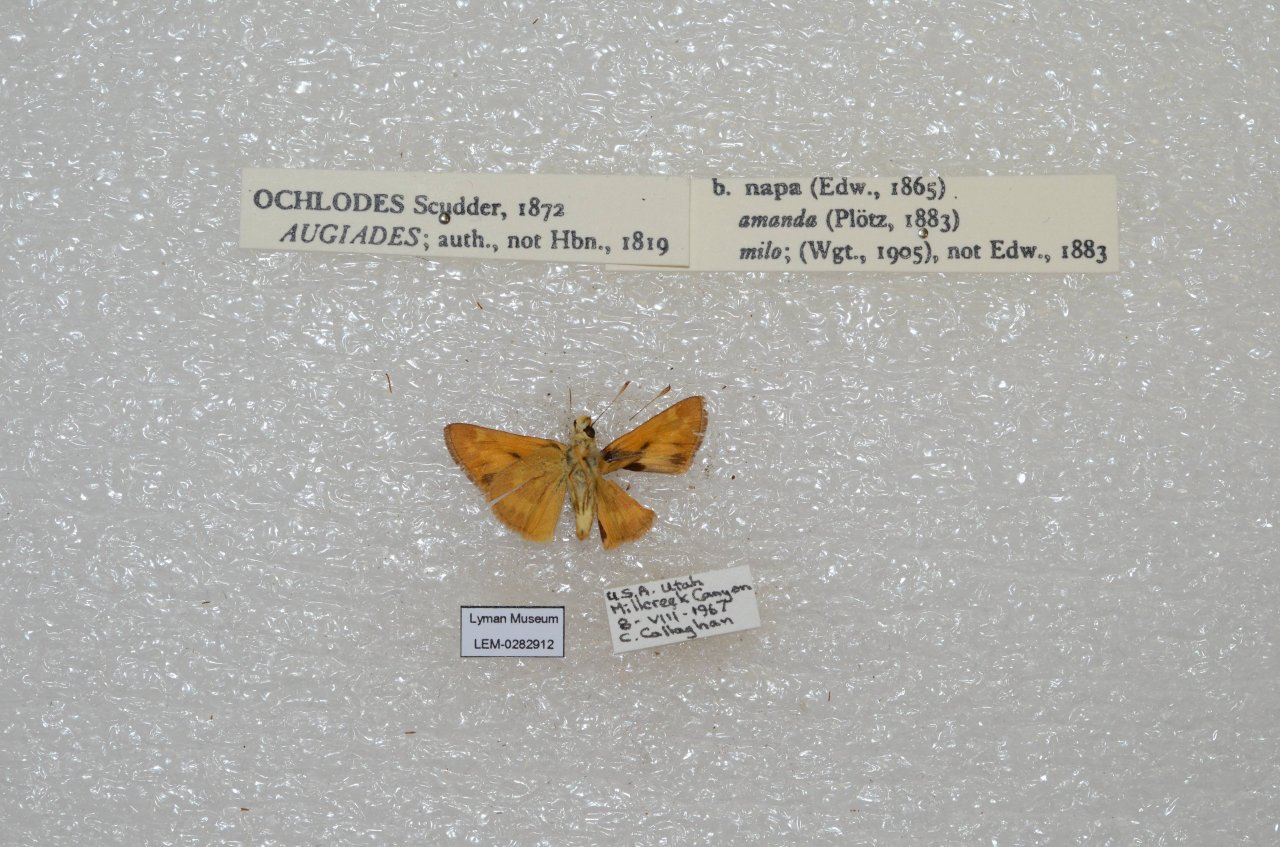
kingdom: Animalia
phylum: Arthropoda
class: Insecta
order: Lepidoptera
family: Hesperiidae
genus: Ochlodes
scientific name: Ochlodes sylvanoides
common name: Woodland Skipper
